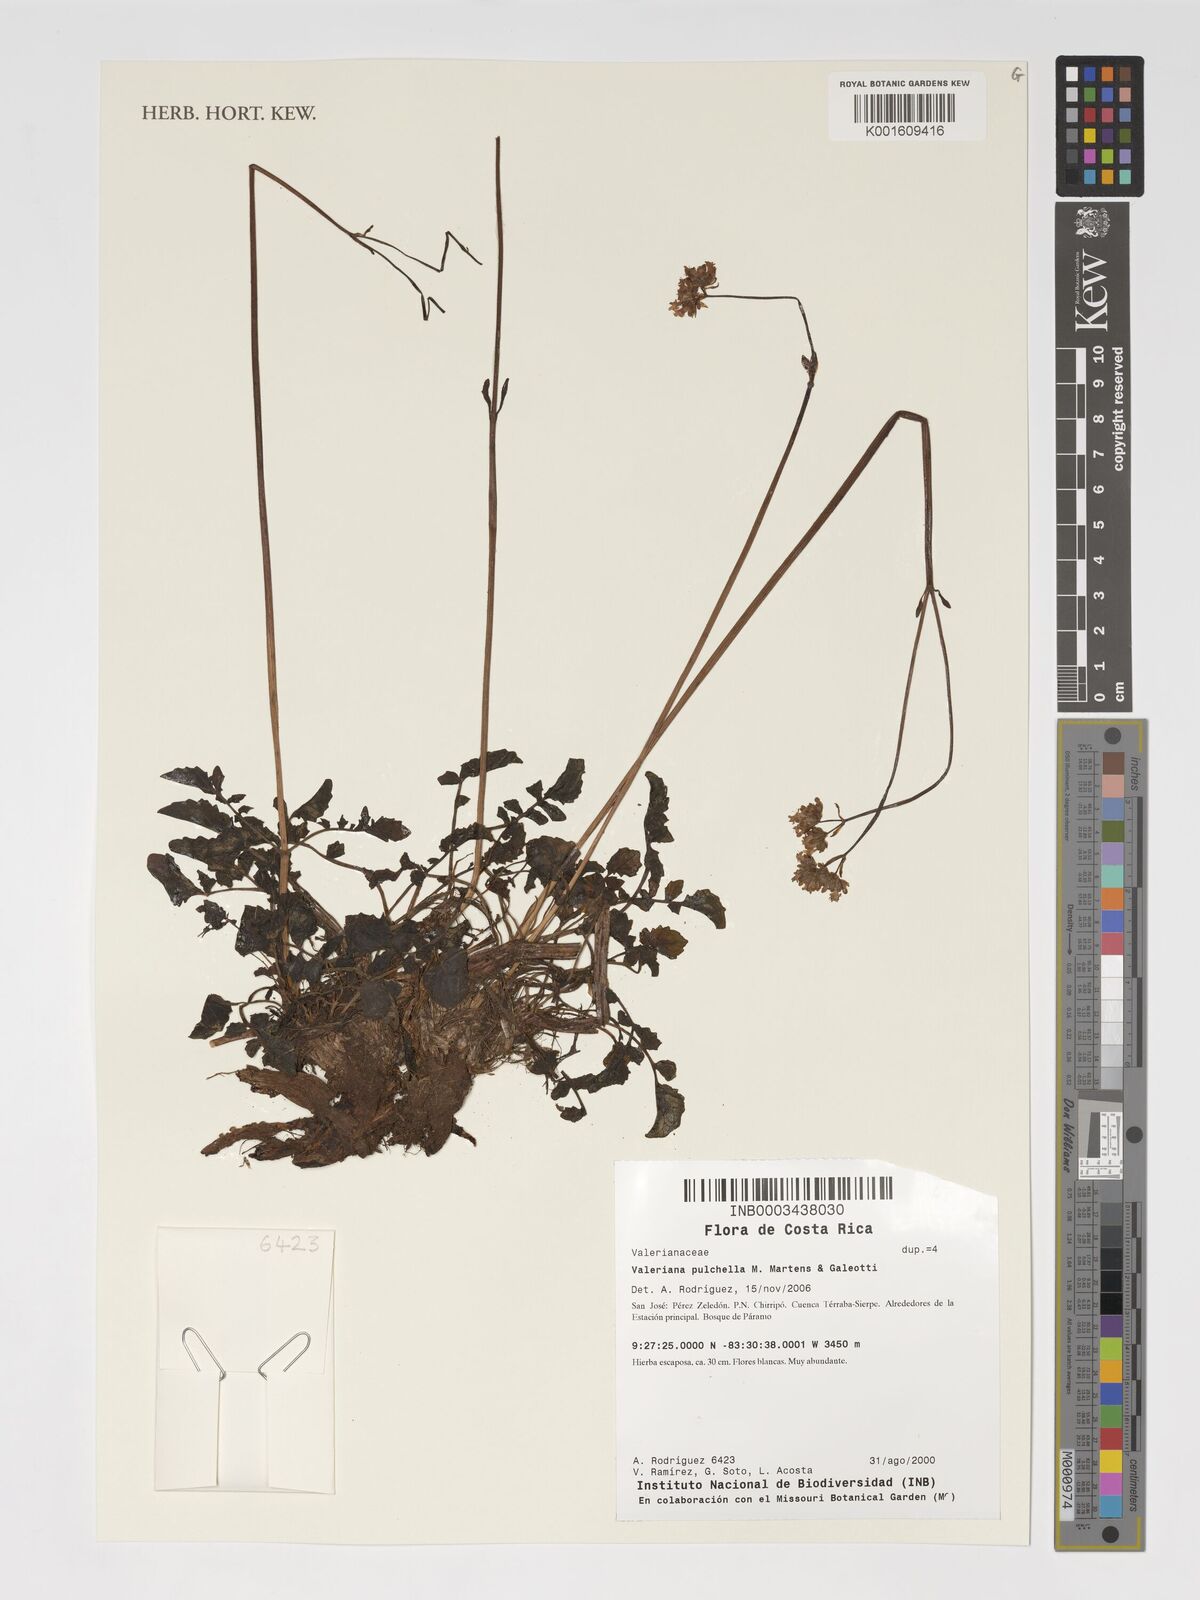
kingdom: Plantae
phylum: Tracheophyta
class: Magnoliopsida
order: Dipsacales
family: Caprifoliaceae
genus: Valeriana
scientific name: Valeriana pulchella
